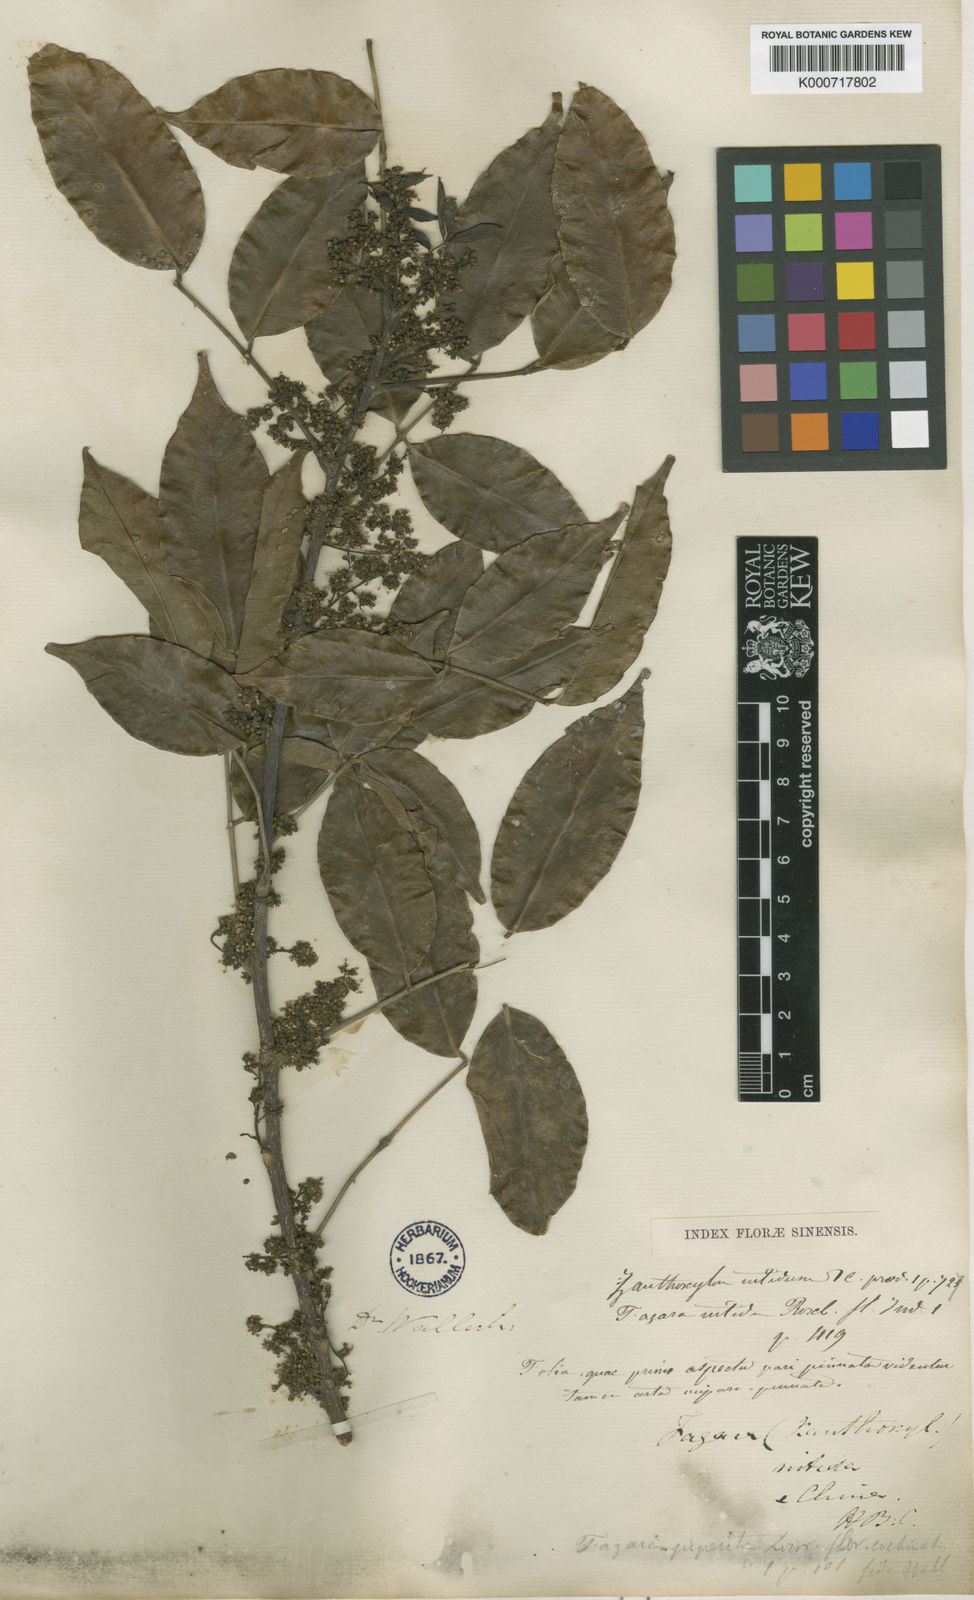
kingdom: Plantae
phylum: Tracheophyta
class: Magnoliopsida
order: Sapindales
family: Rutaceae
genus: Zanthoxylum
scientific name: Zanthoxylum nitidum
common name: Shiny-leaf prickly-ash
